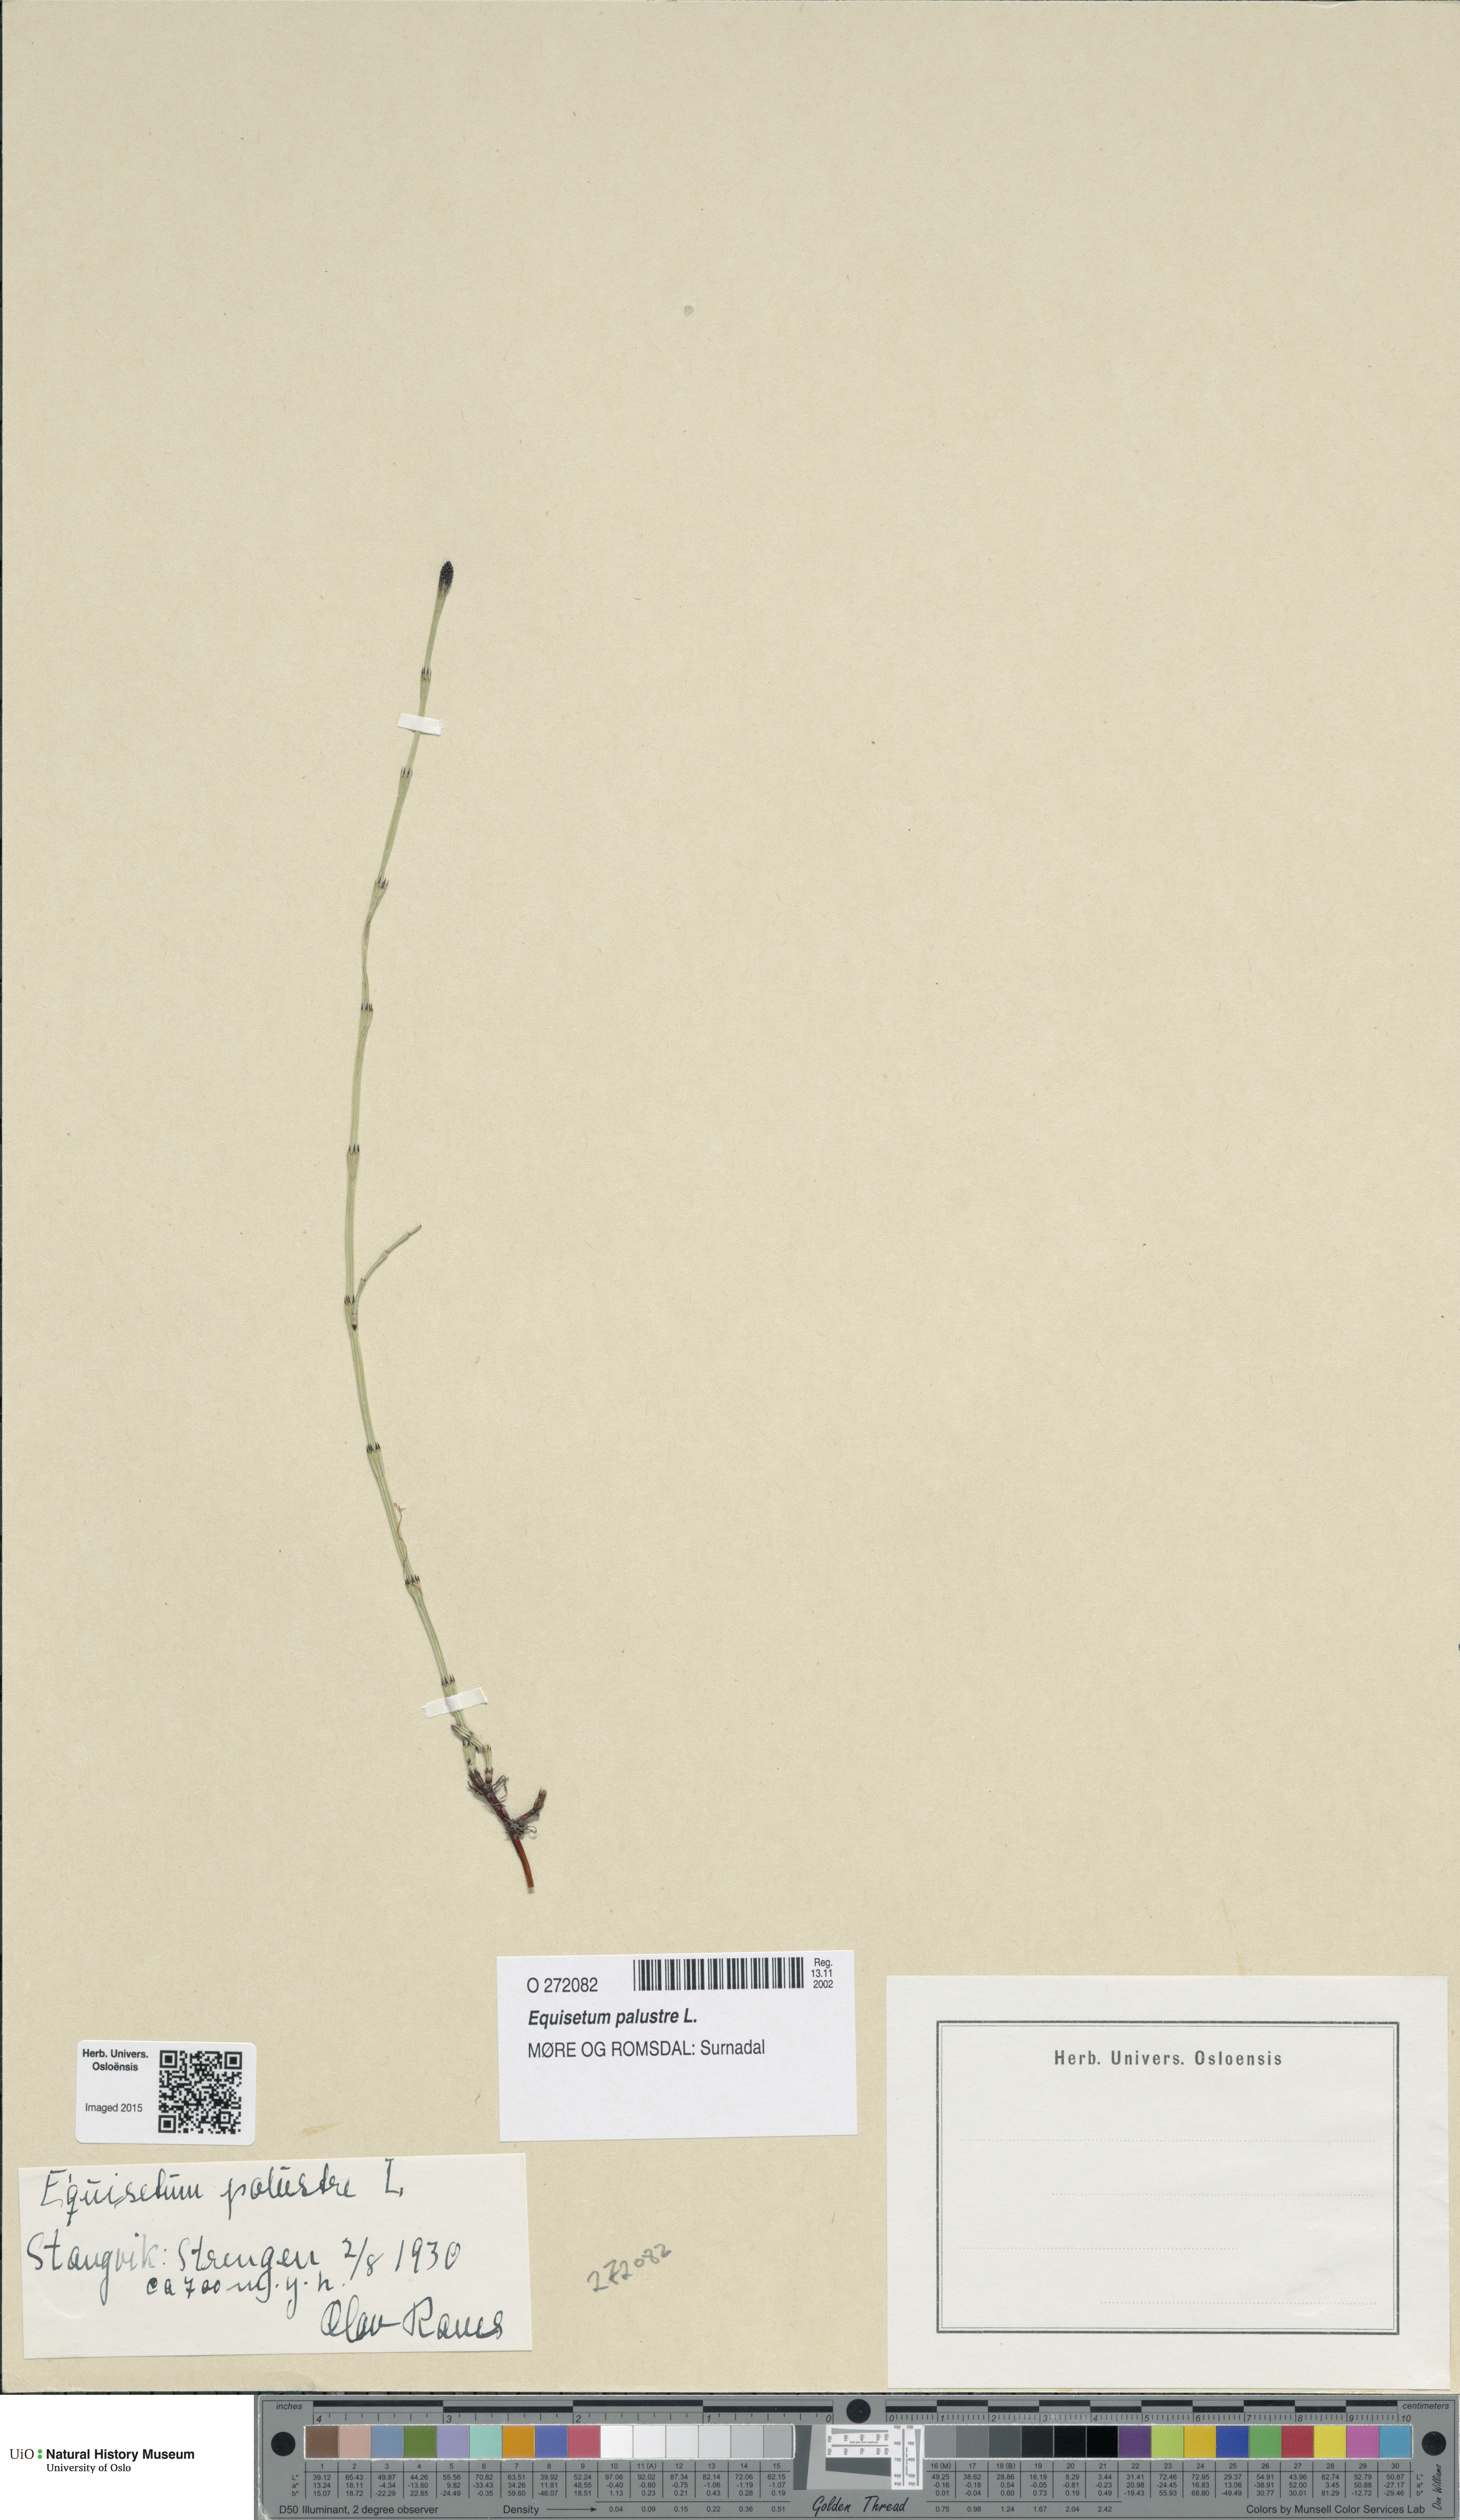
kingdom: Plantae
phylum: Tracheophyta
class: Polypodiopsida
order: Equisetales
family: Equisetaceae
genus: Equisetum
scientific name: Equisetum palustre
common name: Marsh horsetail
